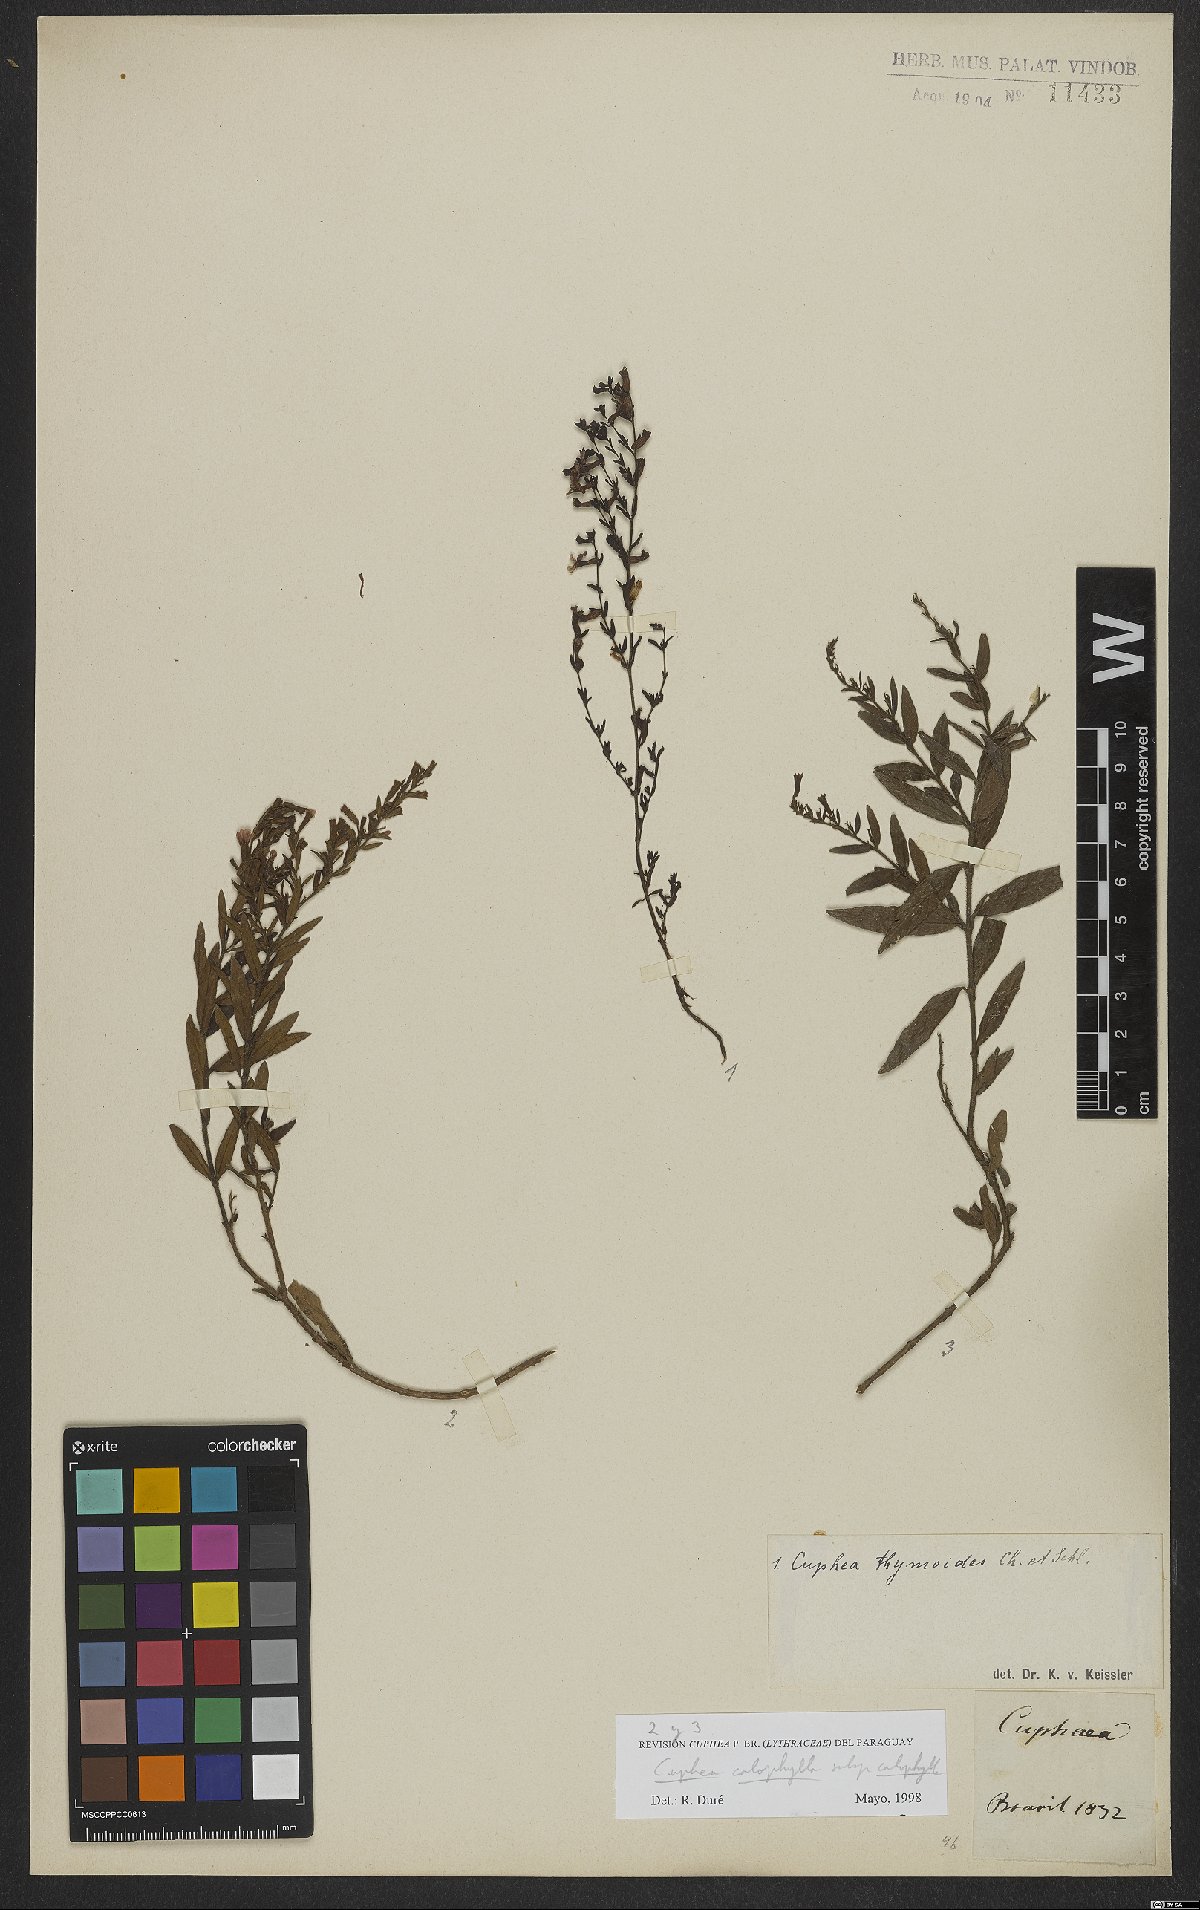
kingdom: Plantae
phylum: Tracheophyta
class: Magnoliopsida
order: Myrtales
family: Lythraceae
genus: Cuphea
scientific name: Cuphea calophylla
